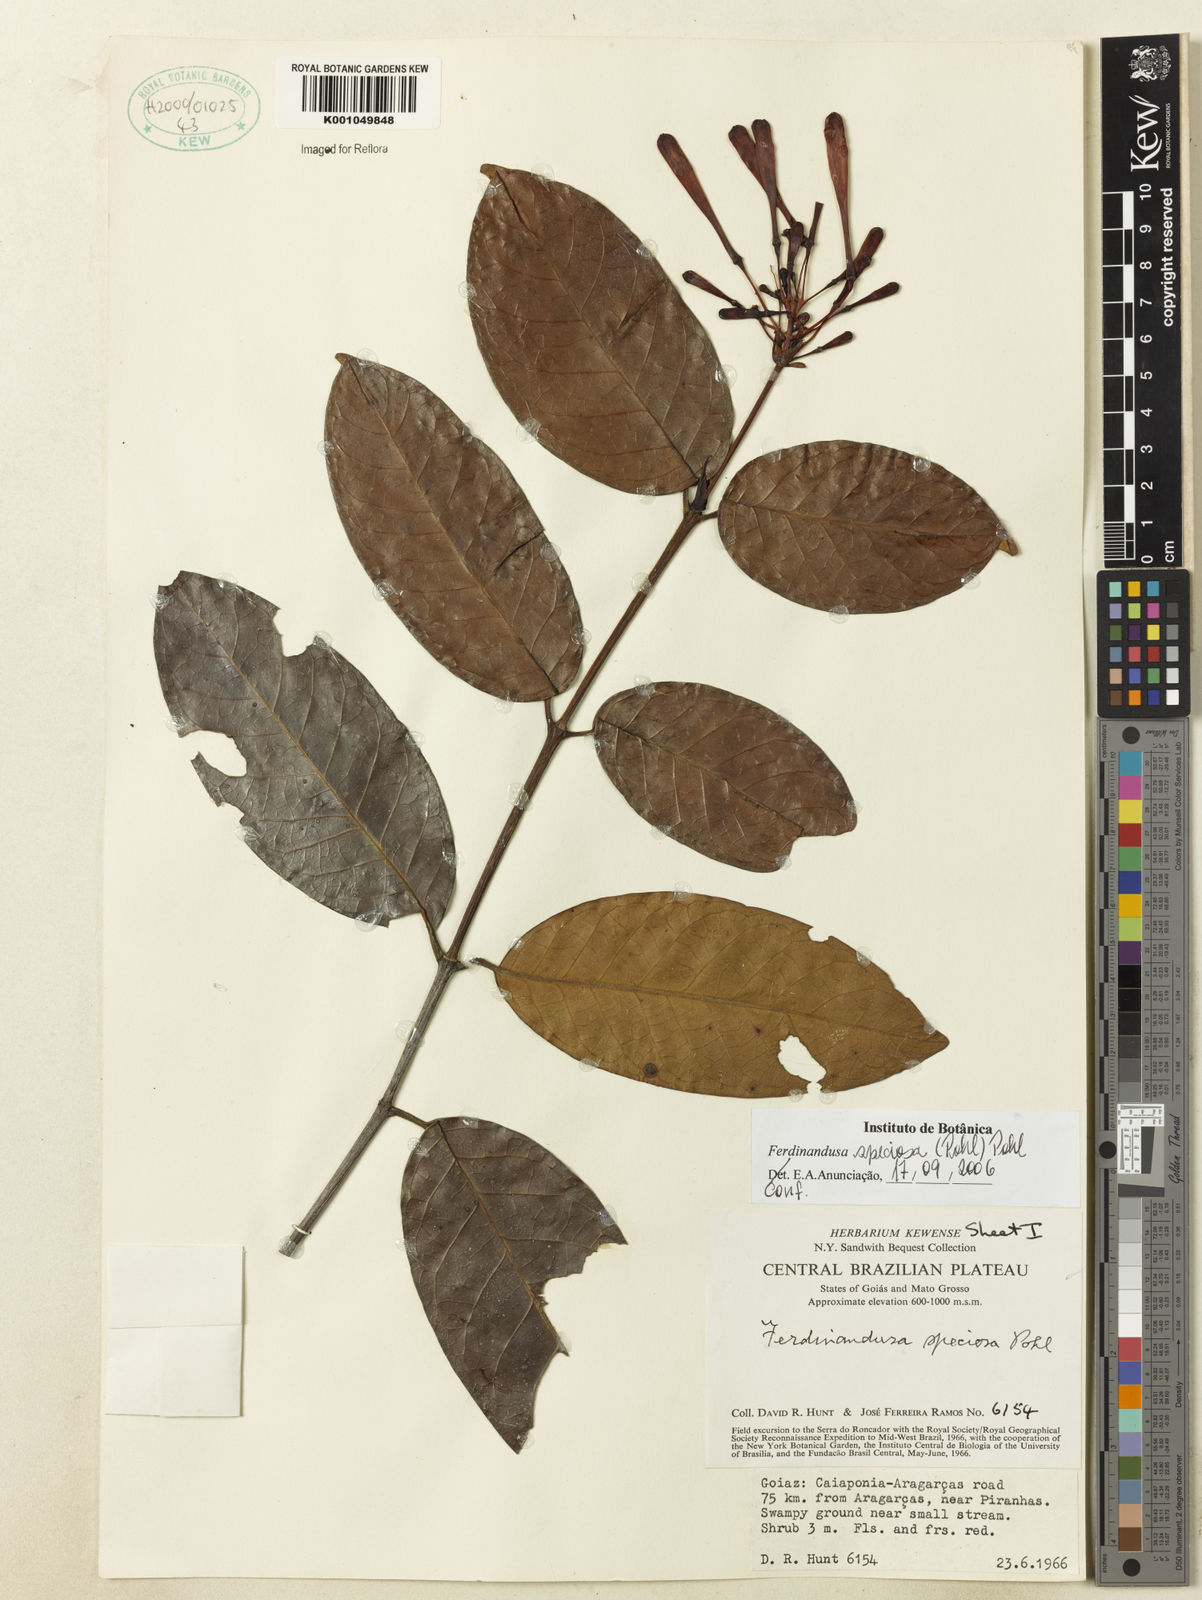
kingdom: Plantae
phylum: Tracheophyta
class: Magnoliopsida
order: Gentianales
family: Rubiaceae
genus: Ferdinandusa
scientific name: Ferdinandusa speciosa
